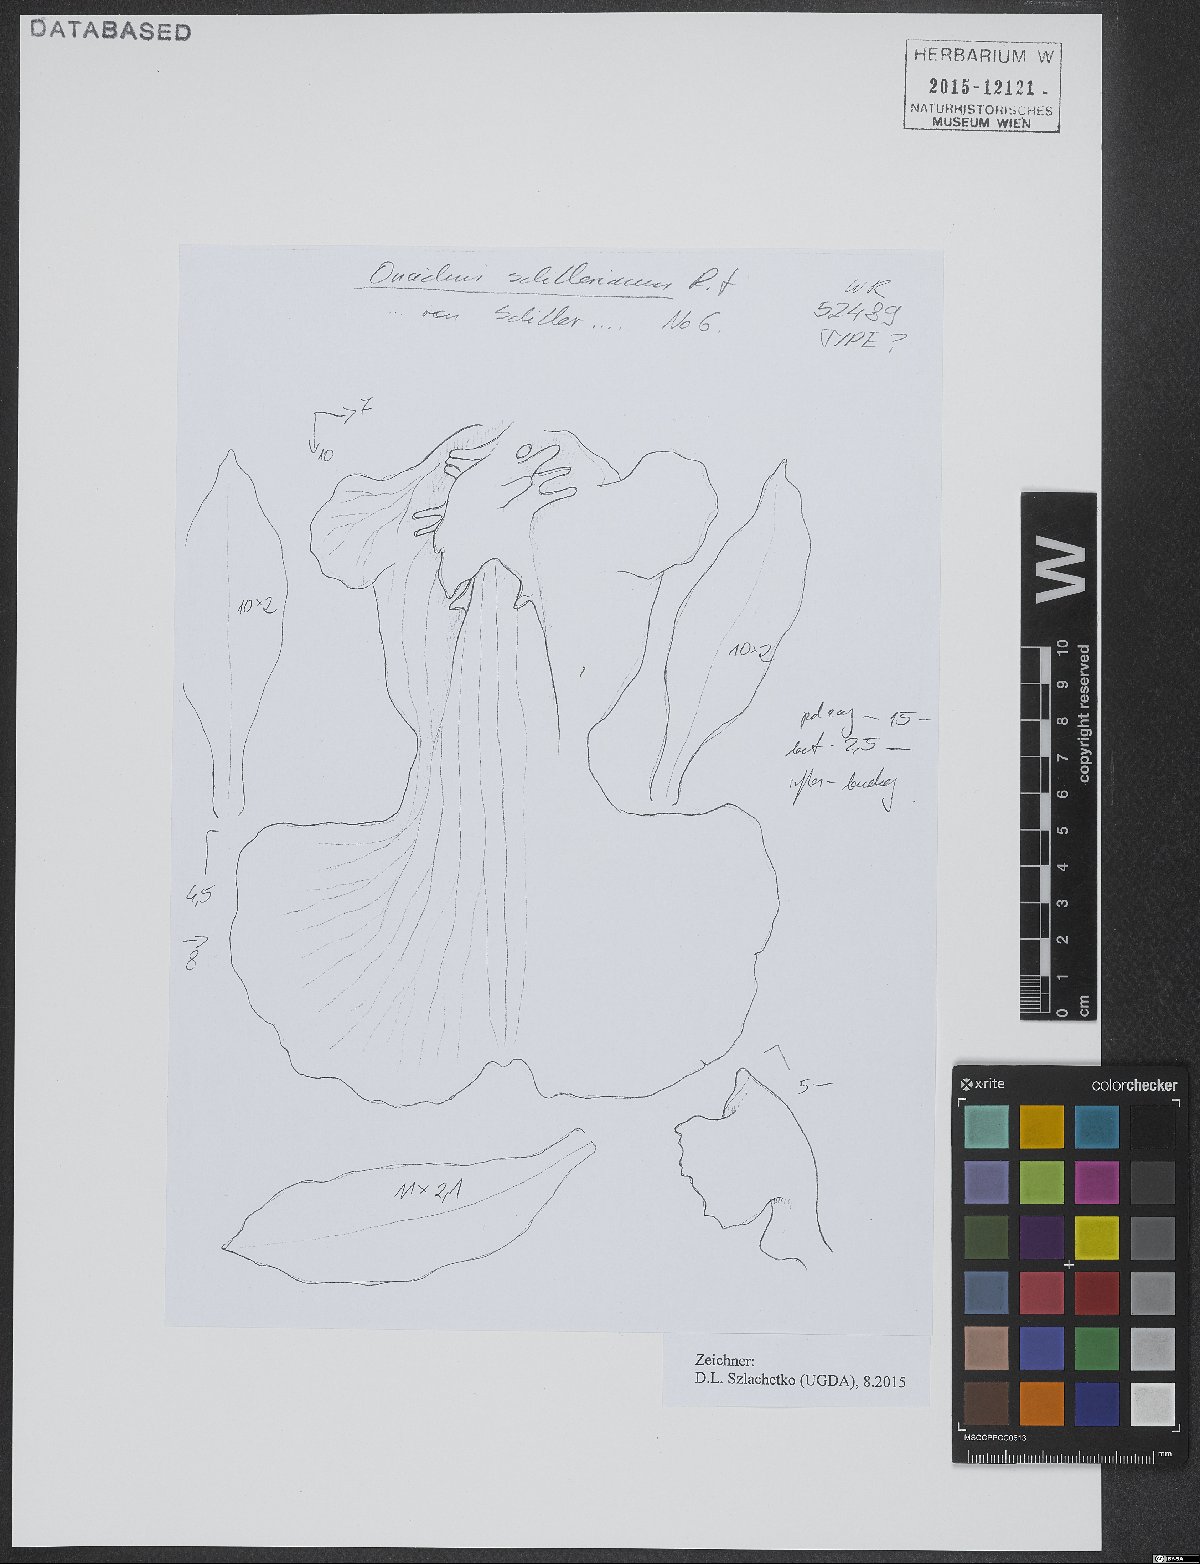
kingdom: Plantae
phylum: Tracheophyta
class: Liliopsida
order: Asparagales
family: Orchidaceae
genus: Oncidium
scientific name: Oncidium schillerianum
